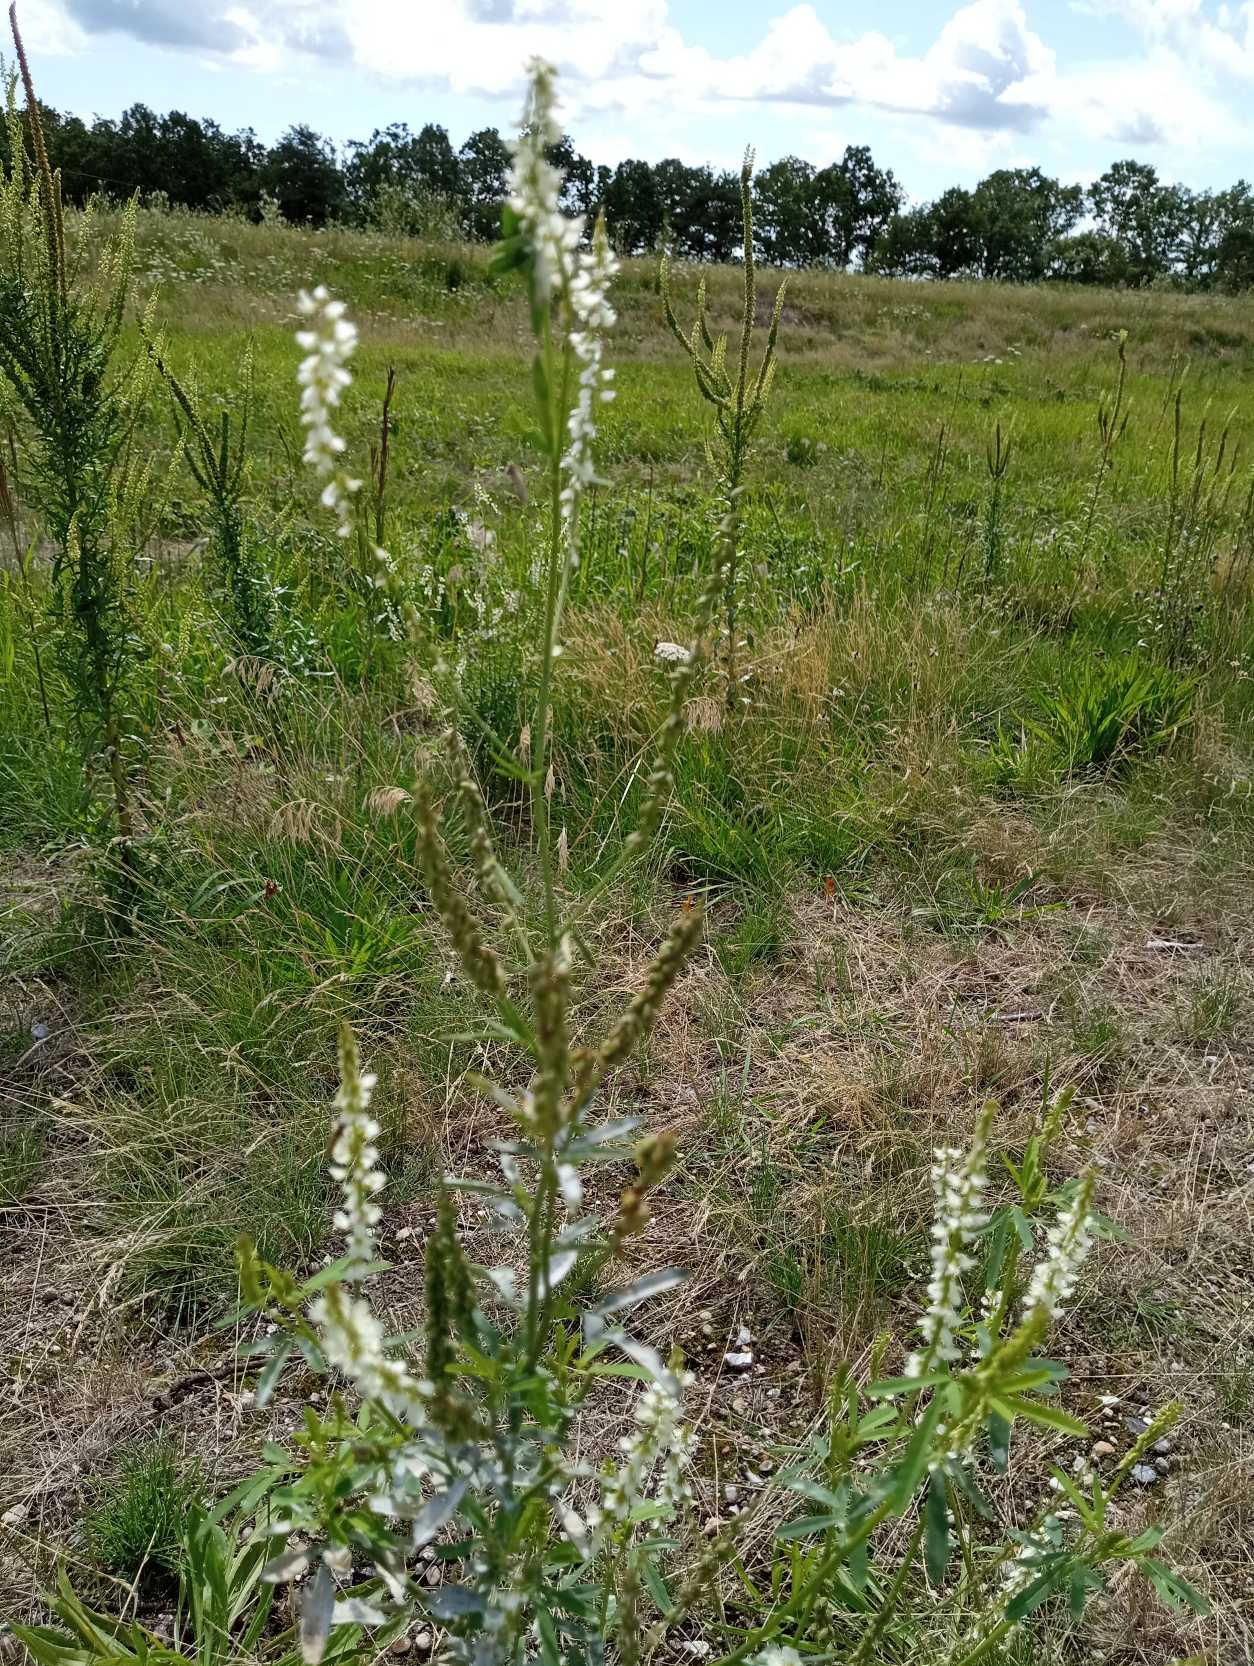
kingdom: Plantae
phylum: Tracheophyta
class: Magnoliopsida
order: Fabales
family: Fabaceae
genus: Melilotus
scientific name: Melilotus albus
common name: Hvid stenkløver
